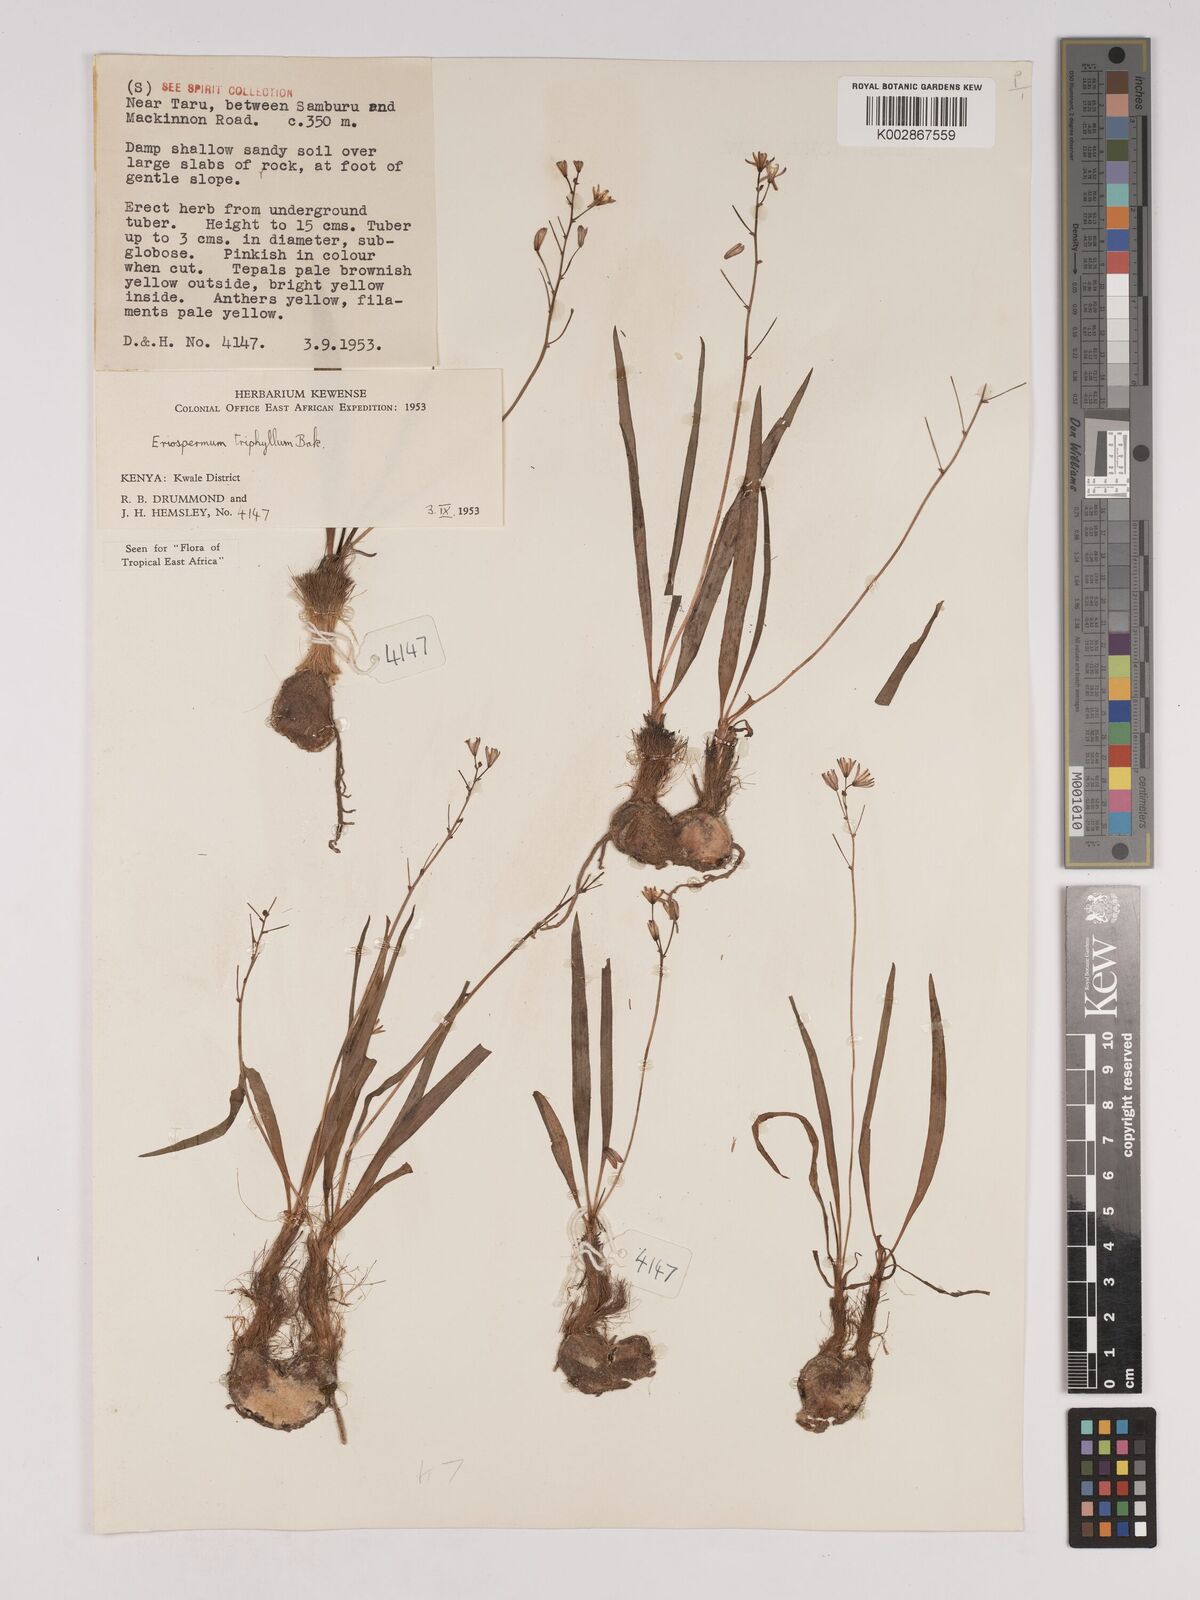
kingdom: Plantae
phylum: Tracheophyta
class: Liliopsida
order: Asparagales
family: Asparagaceae
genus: Eriospermum
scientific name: Eriospermum triphyllum
